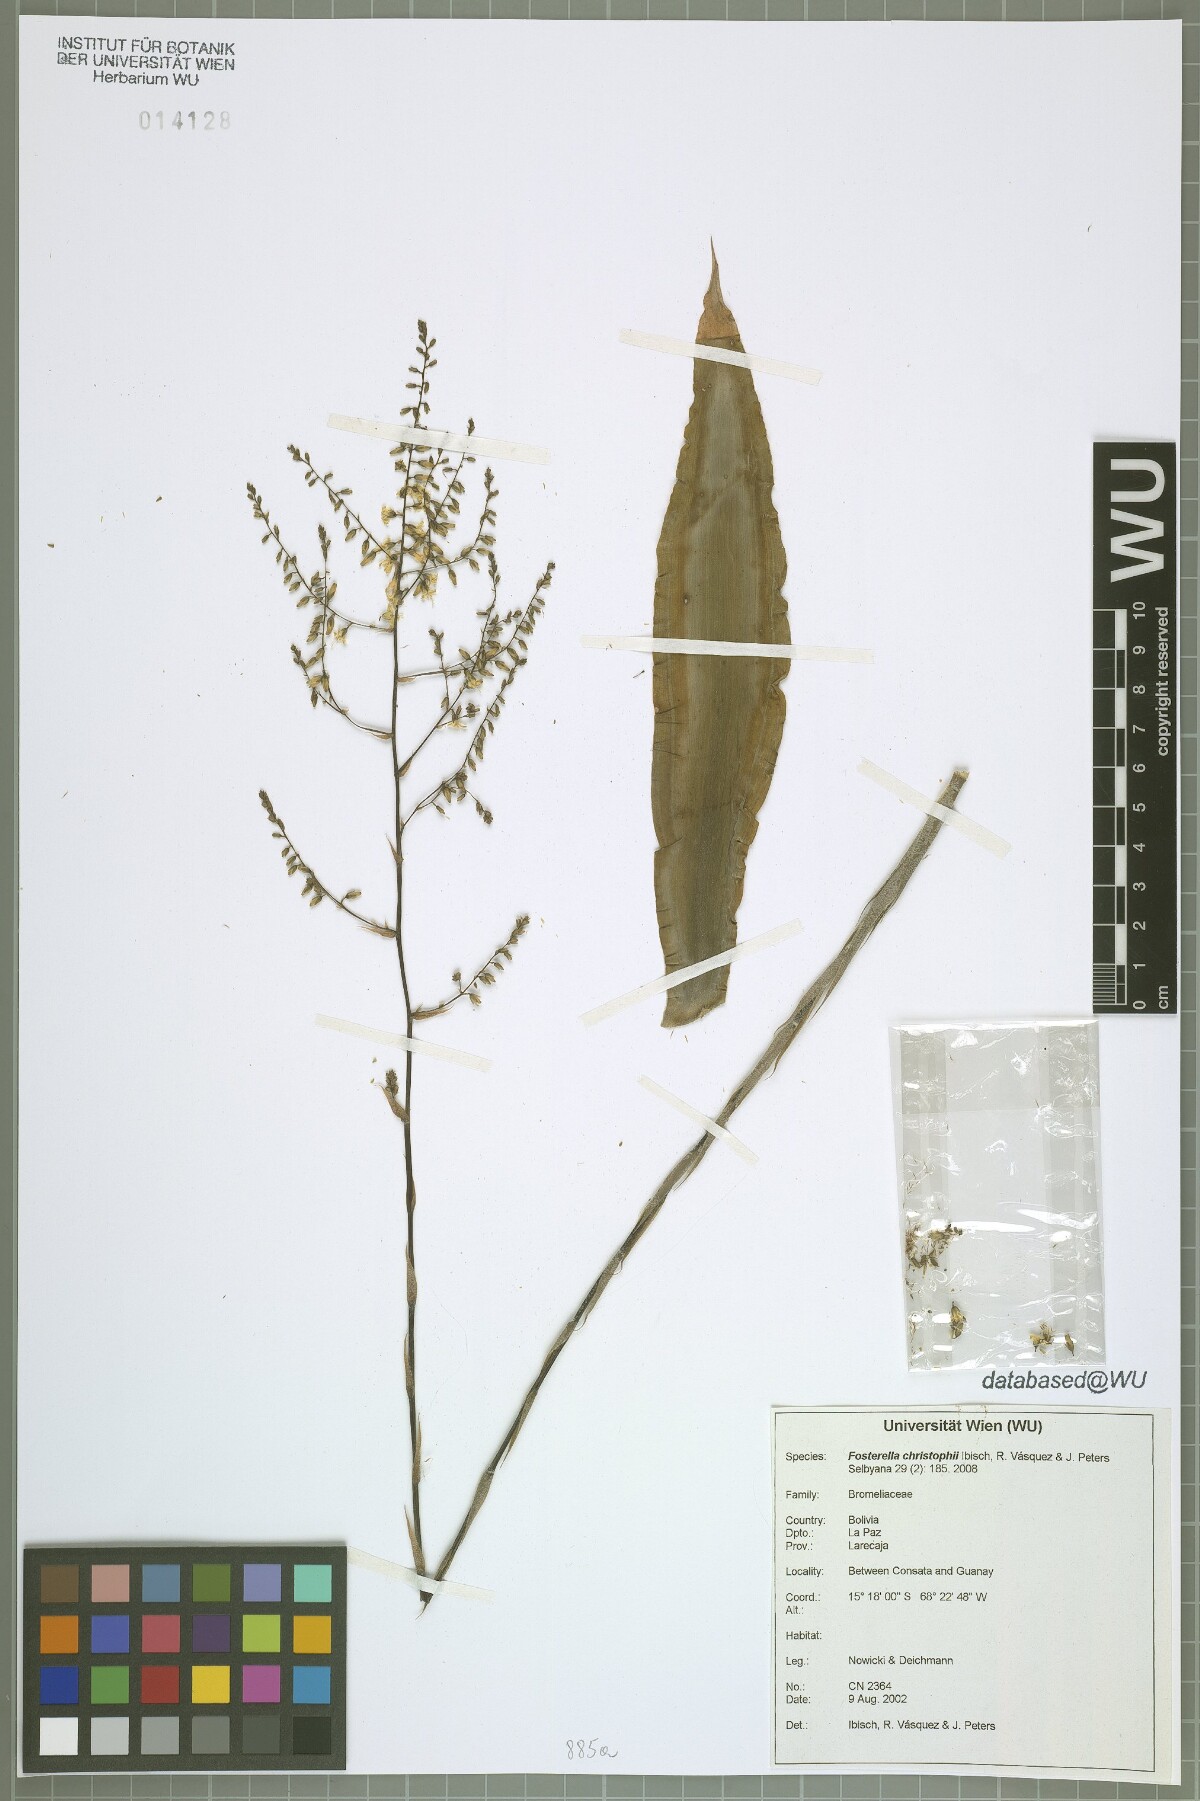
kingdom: Plantae
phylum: Tracheophyta
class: Liliopsida
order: Poales
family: Bromeliaceae
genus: Fosterella
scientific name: Fosterella christophii
